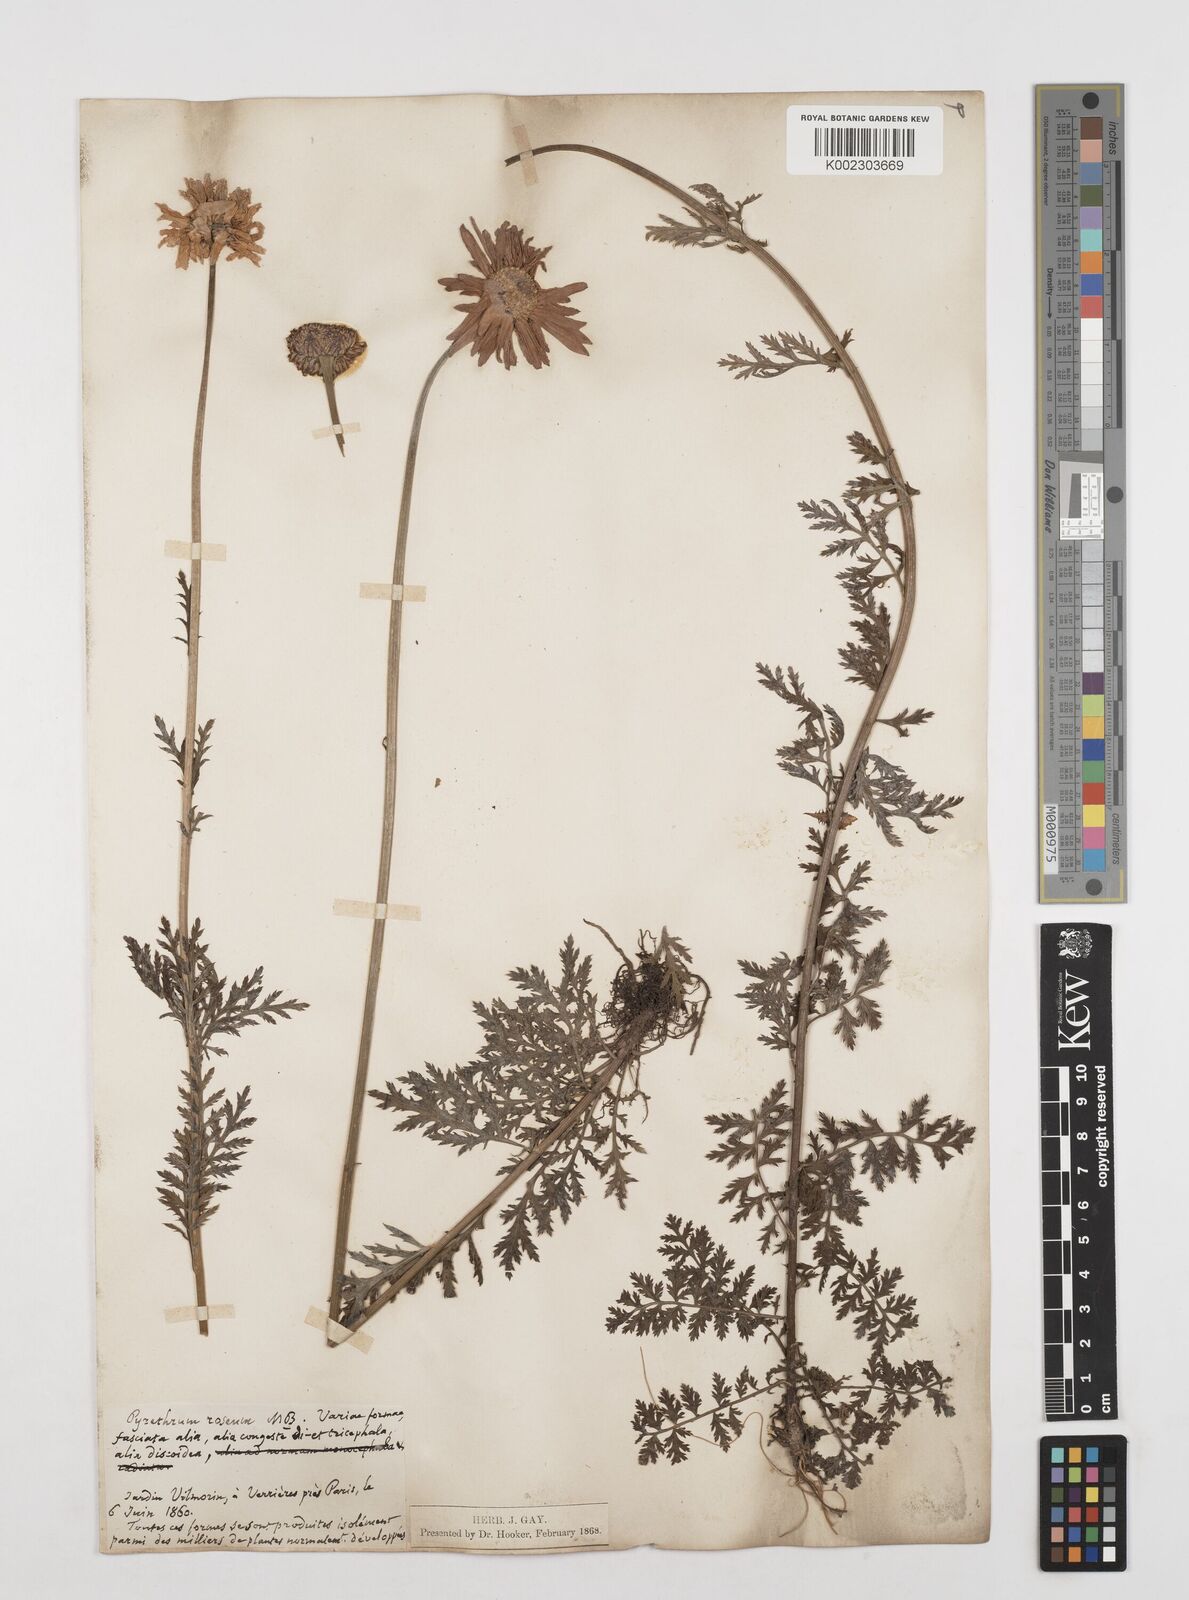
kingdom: Plantae
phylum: Tracheophyta
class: Magnoliopsida
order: Asterales
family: Asteraceae
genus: Tanacetum
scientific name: Tanacetum coccineum
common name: Pyrethum daisy
